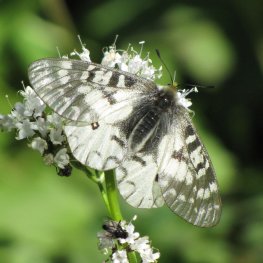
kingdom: Animalia
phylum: Arthropoda
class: Insecta
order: Lepidoptera
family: Papilionidae
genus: Parnassius
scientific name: Parnassius clodius
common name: Clodius Parnassian
